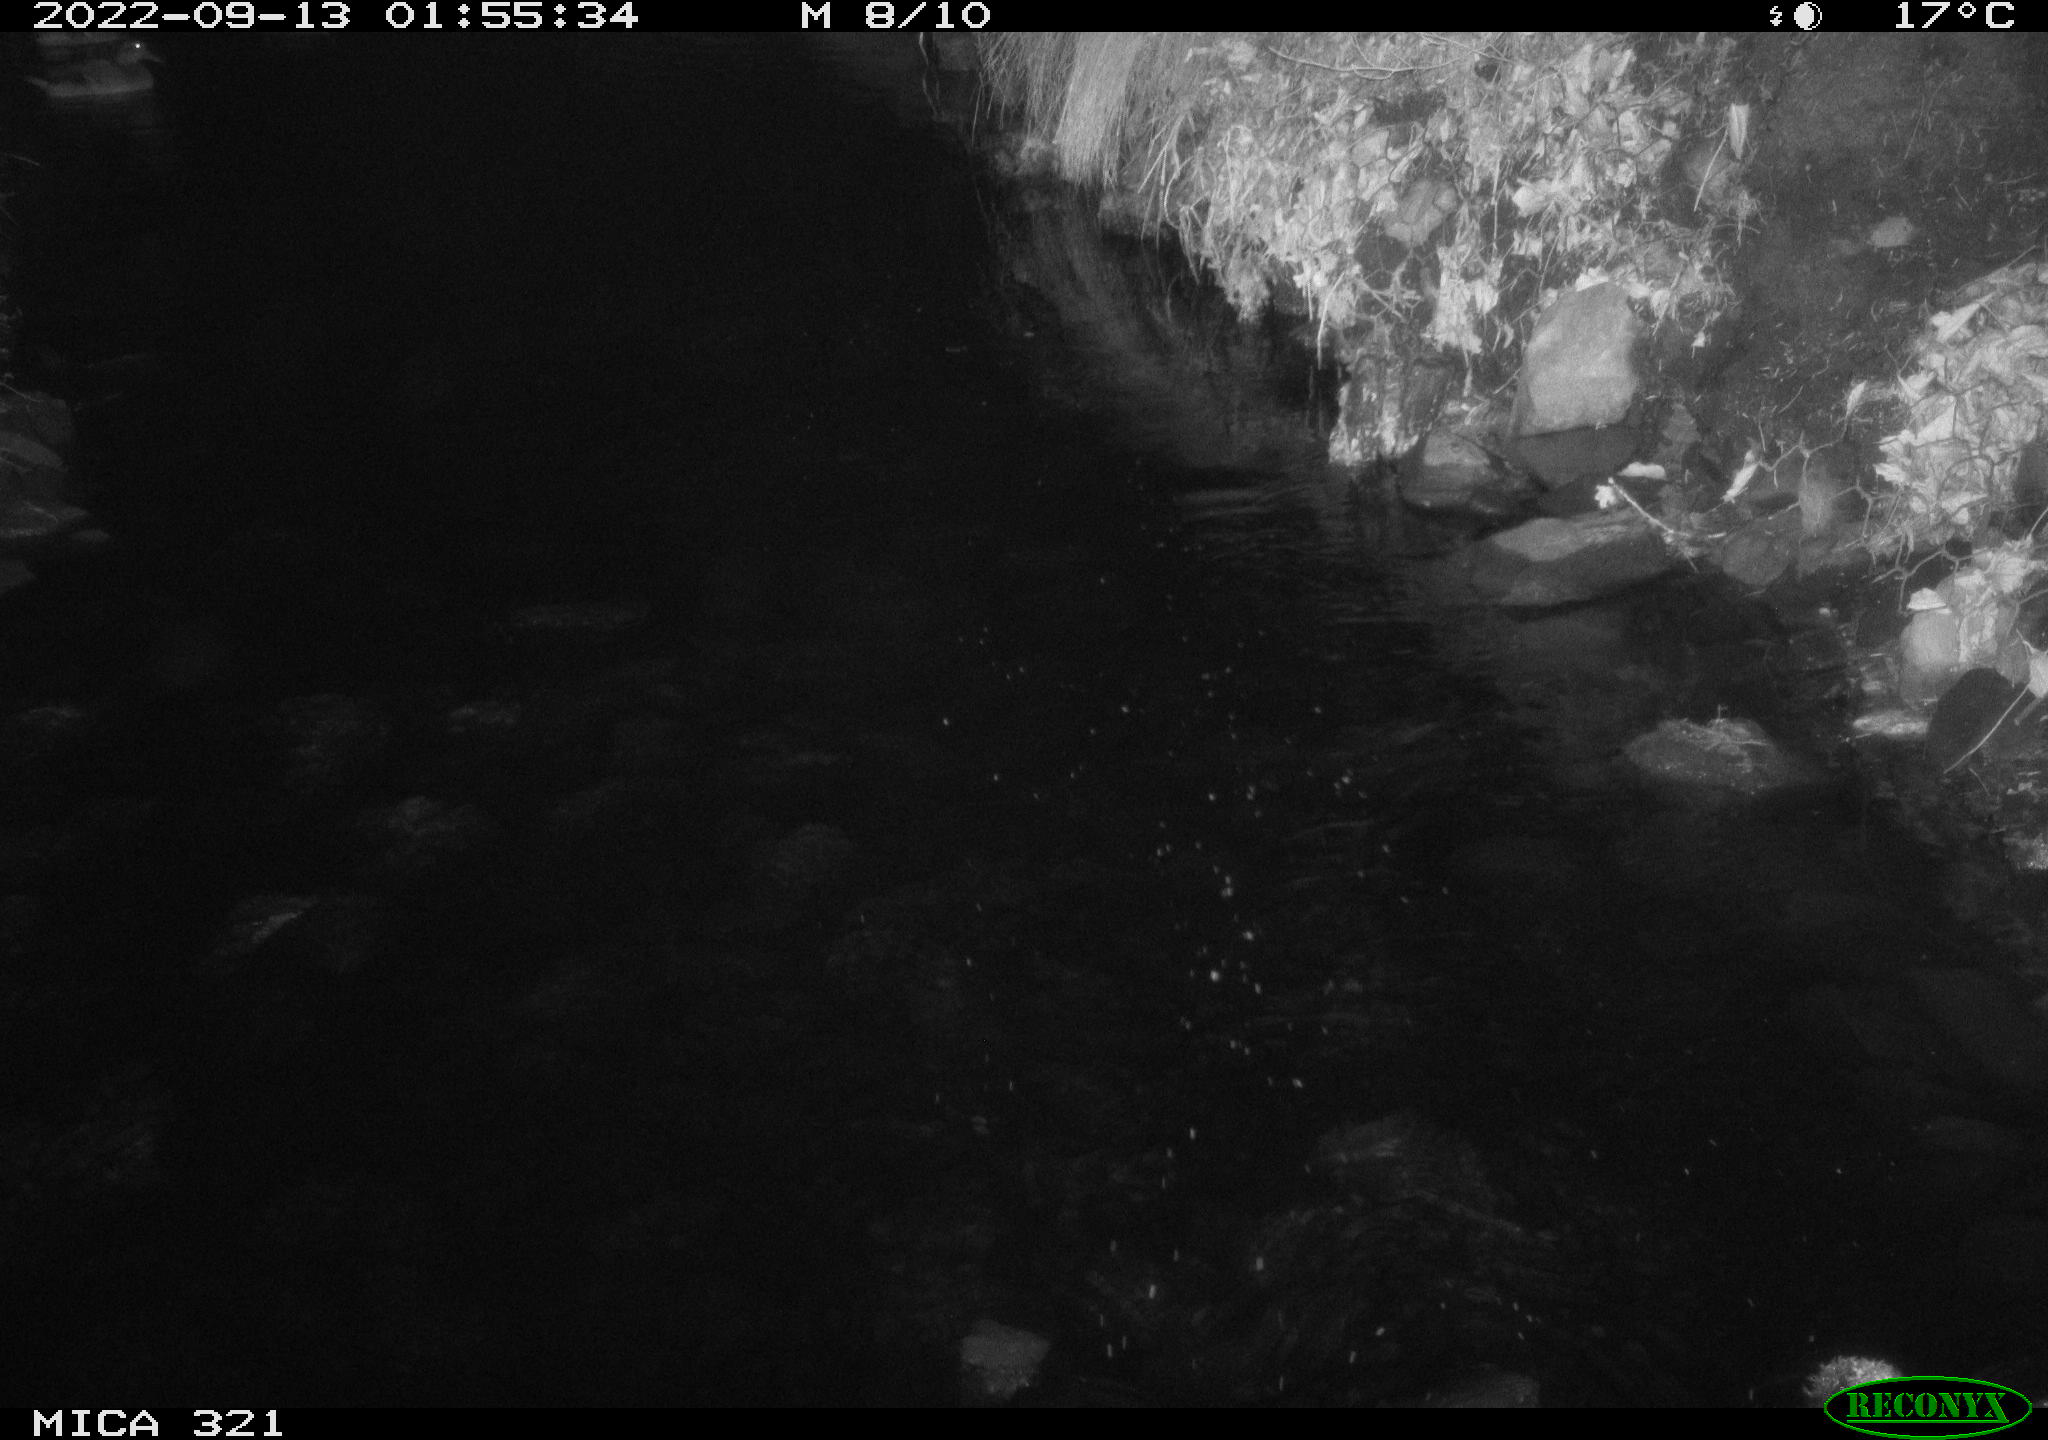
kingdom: Animalia
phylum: Chordata
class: Aves
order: Anseriformes
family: Anatidae
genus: Anas
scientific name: Anas
